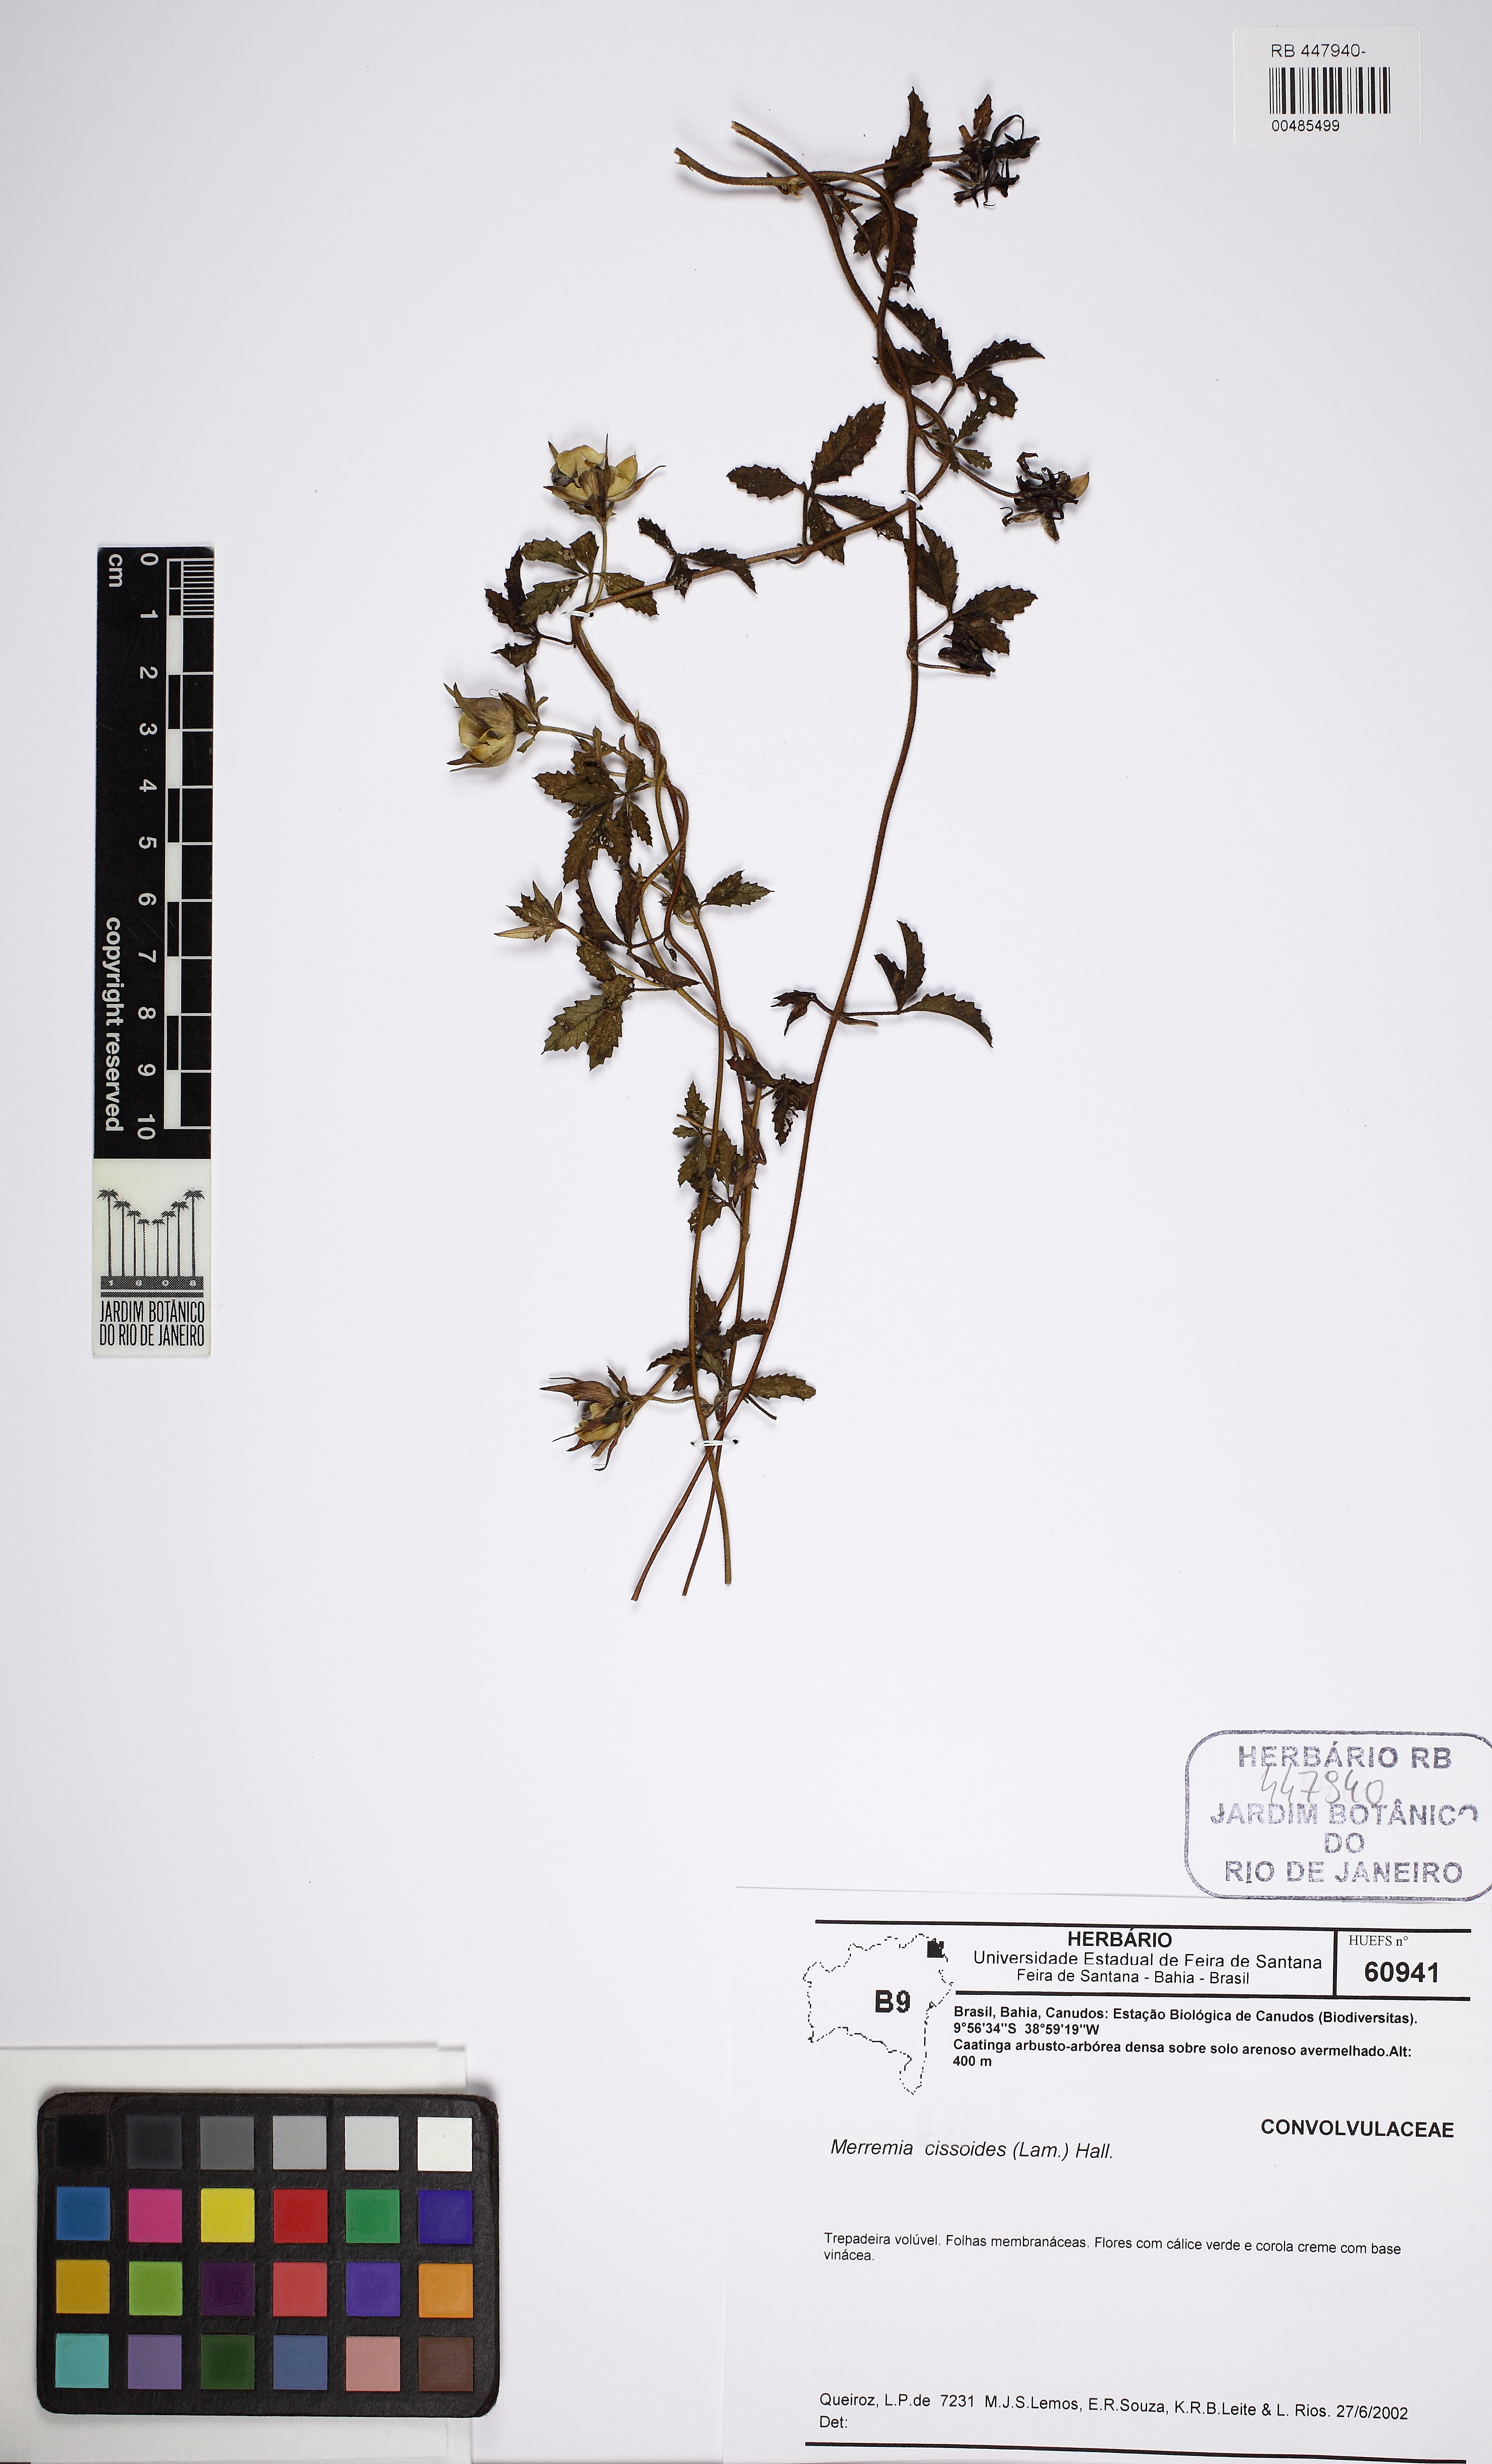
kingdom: Plantae
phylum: Tracheophyta
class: Magnoliopsida
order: Solanales
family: Convolvulaceae
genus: Distimake
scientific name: Distimake cissoides
